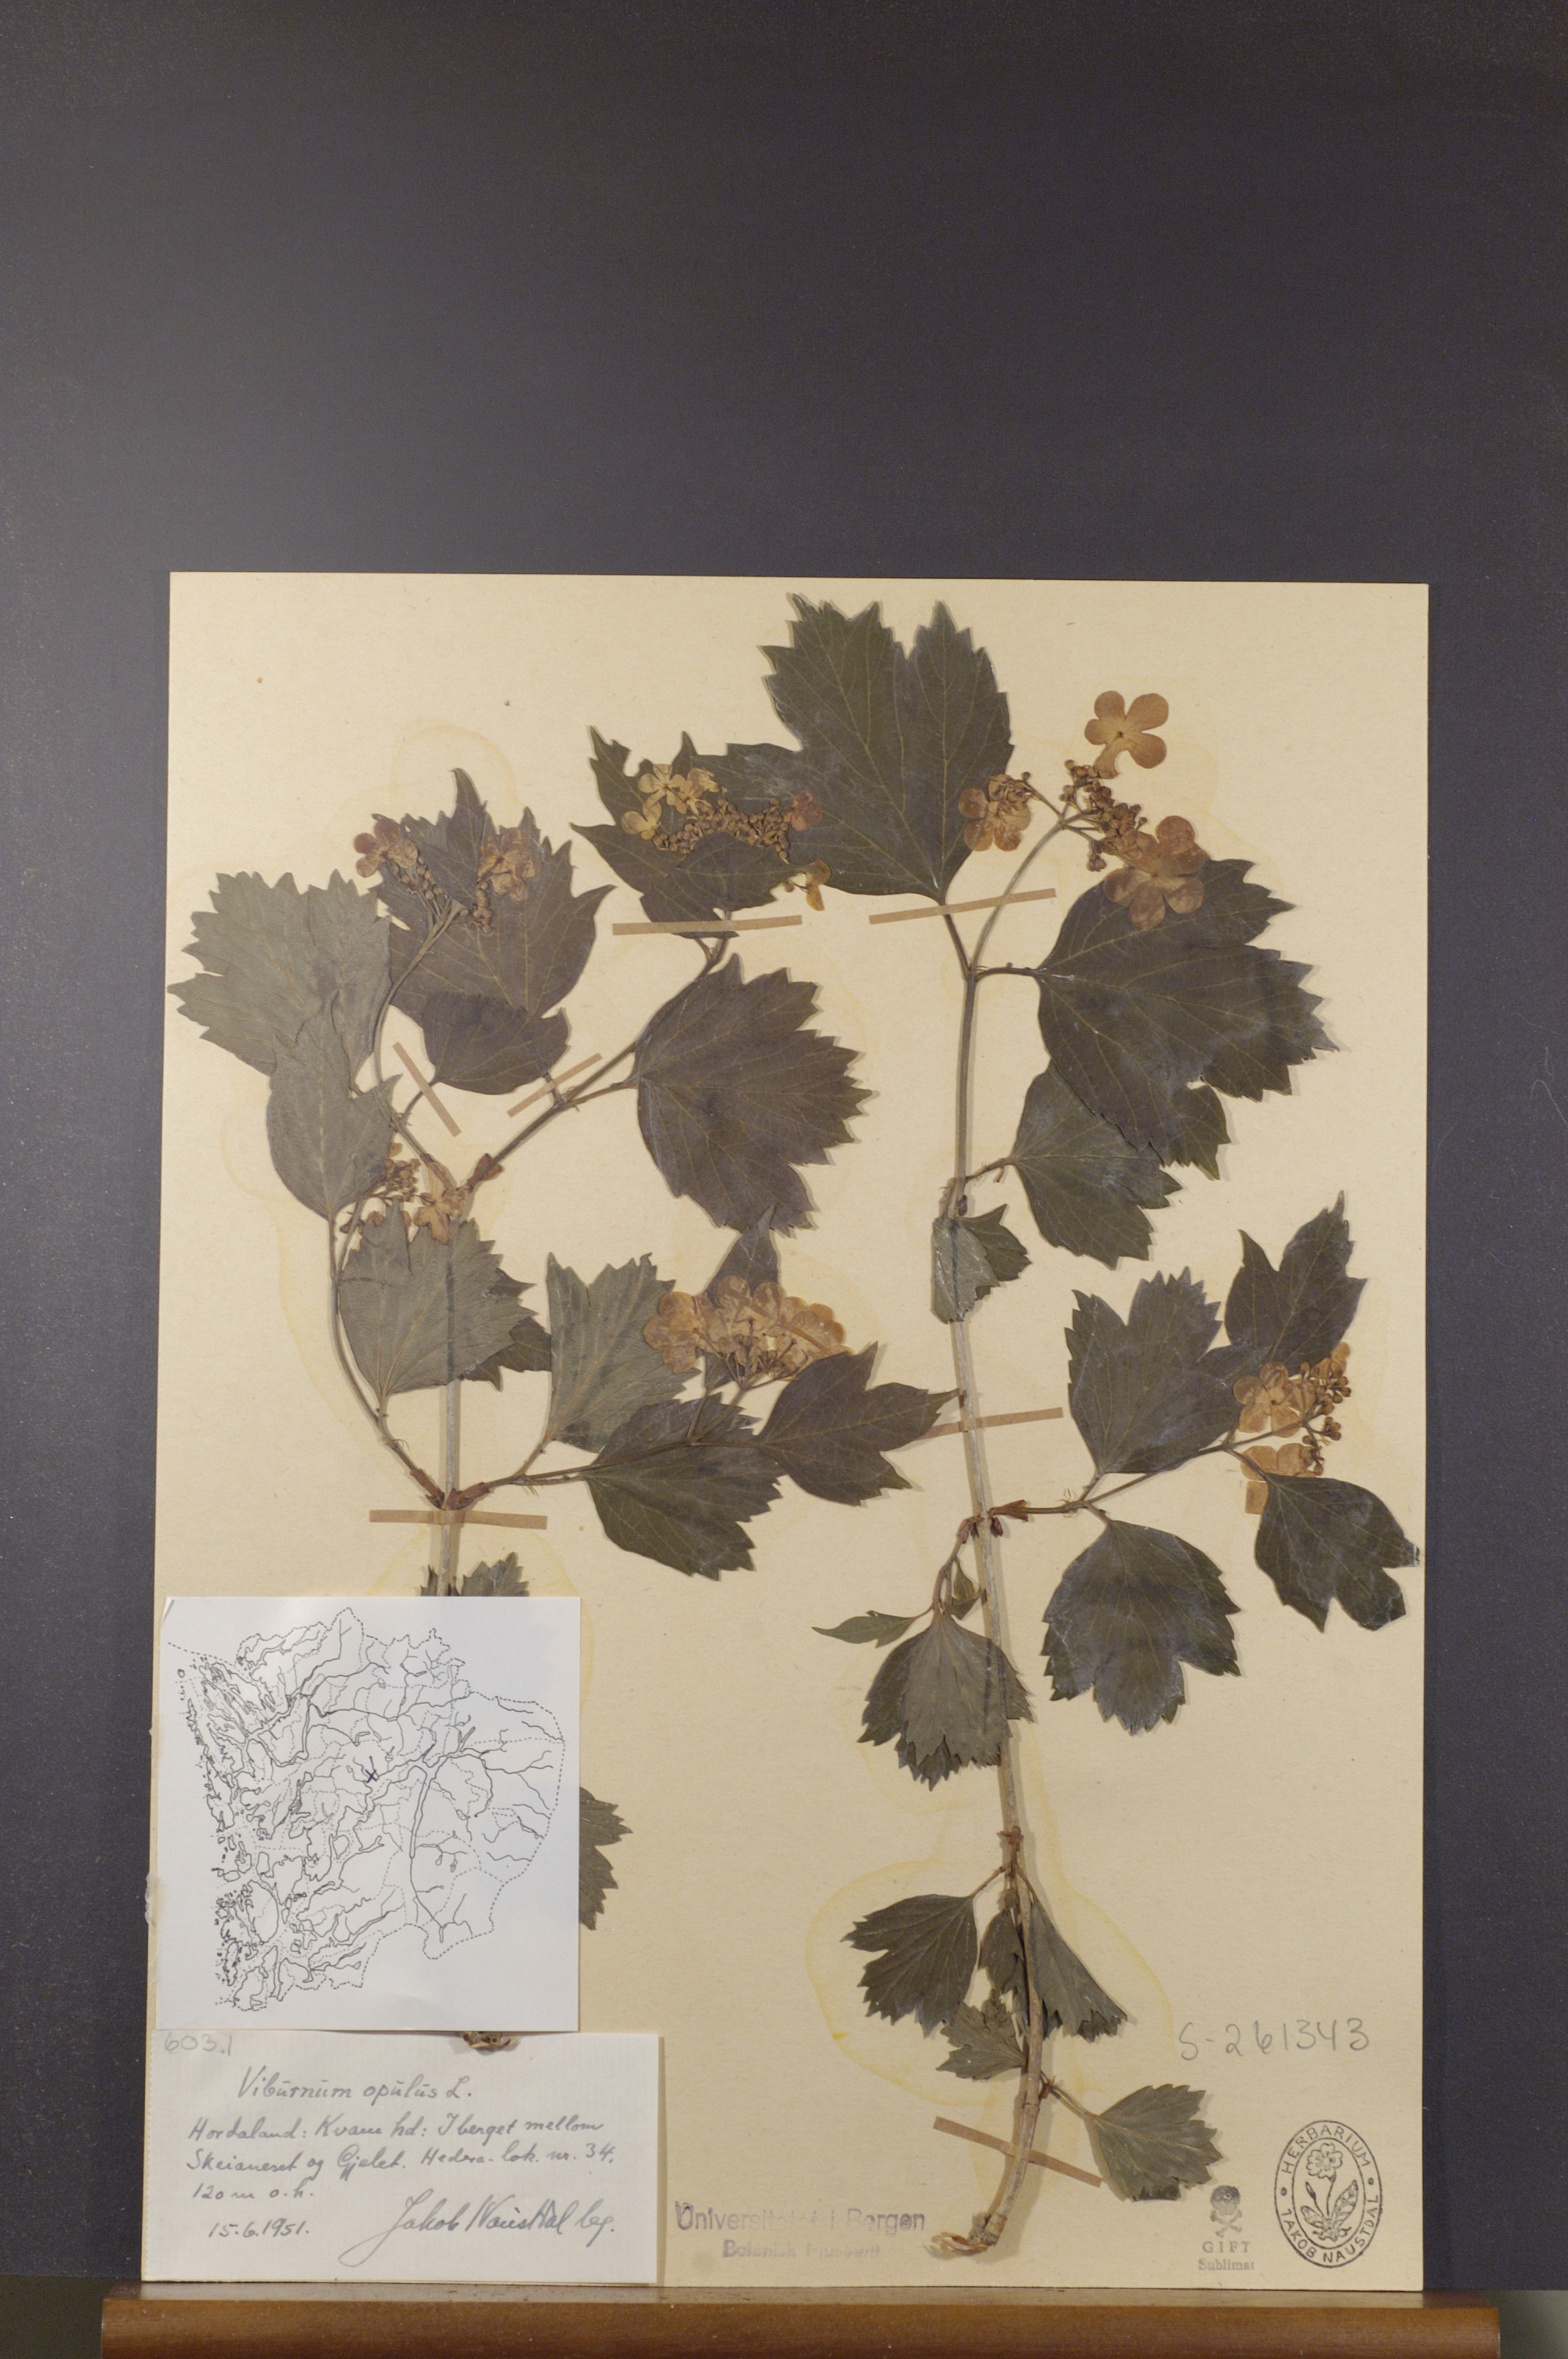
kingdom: Plantae
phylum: Tracheophyta
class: Magnoliopsida
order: Dipsacales
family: Viburnaceae
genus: Viburnum
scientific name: Viburnum opulus
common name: Guelder-rose
